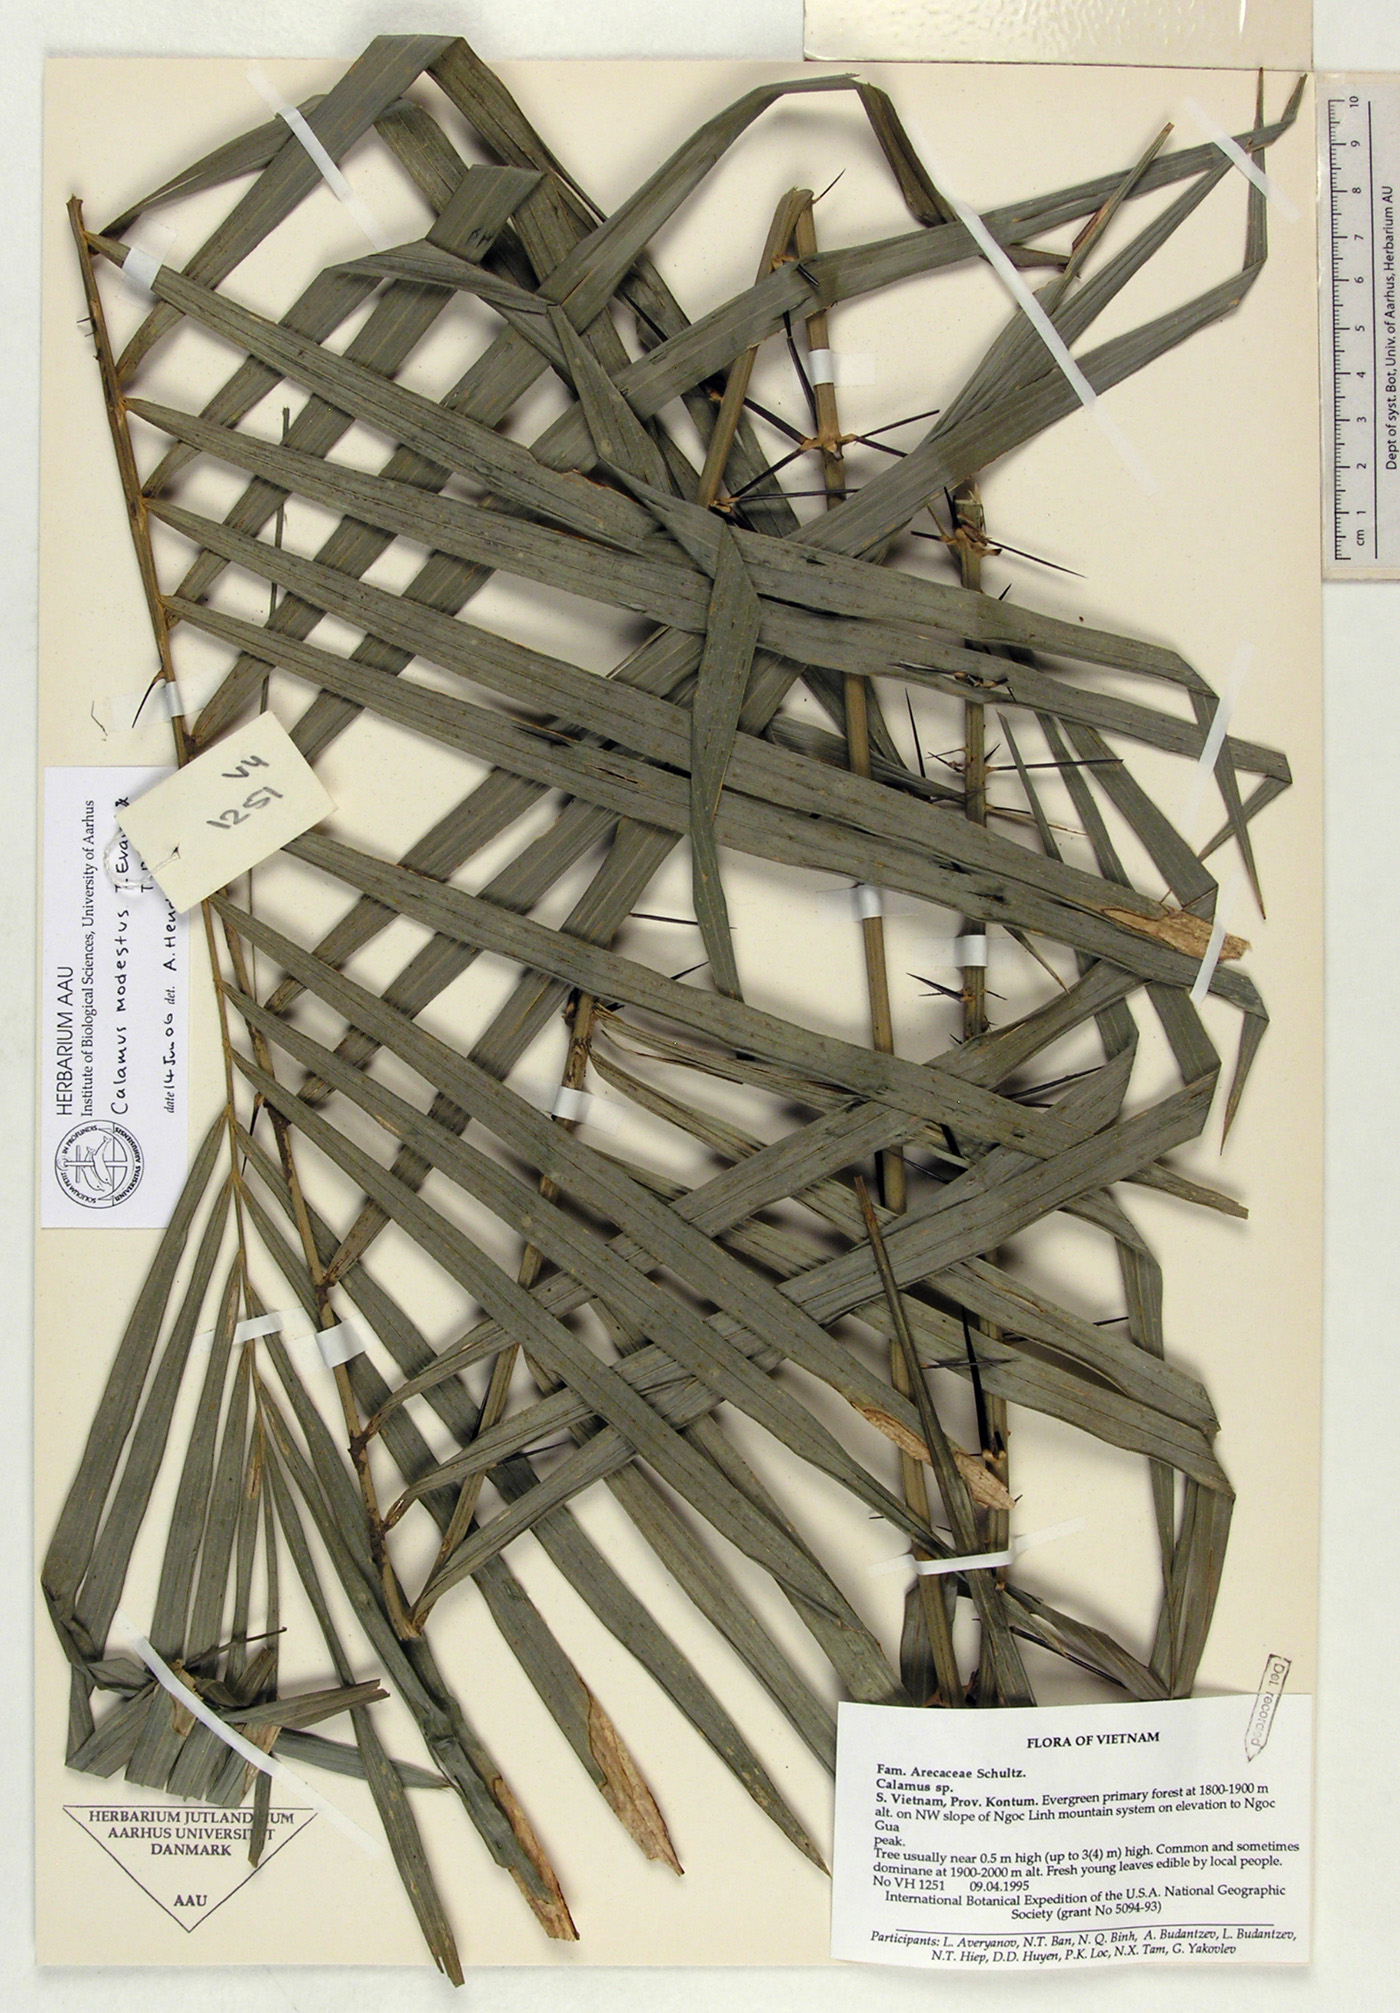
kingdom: Plantae
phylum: Tracheophyta
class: Liliopsida
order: Arecales
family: Arecaceae
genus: Calamus
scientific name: Calamus modestus
